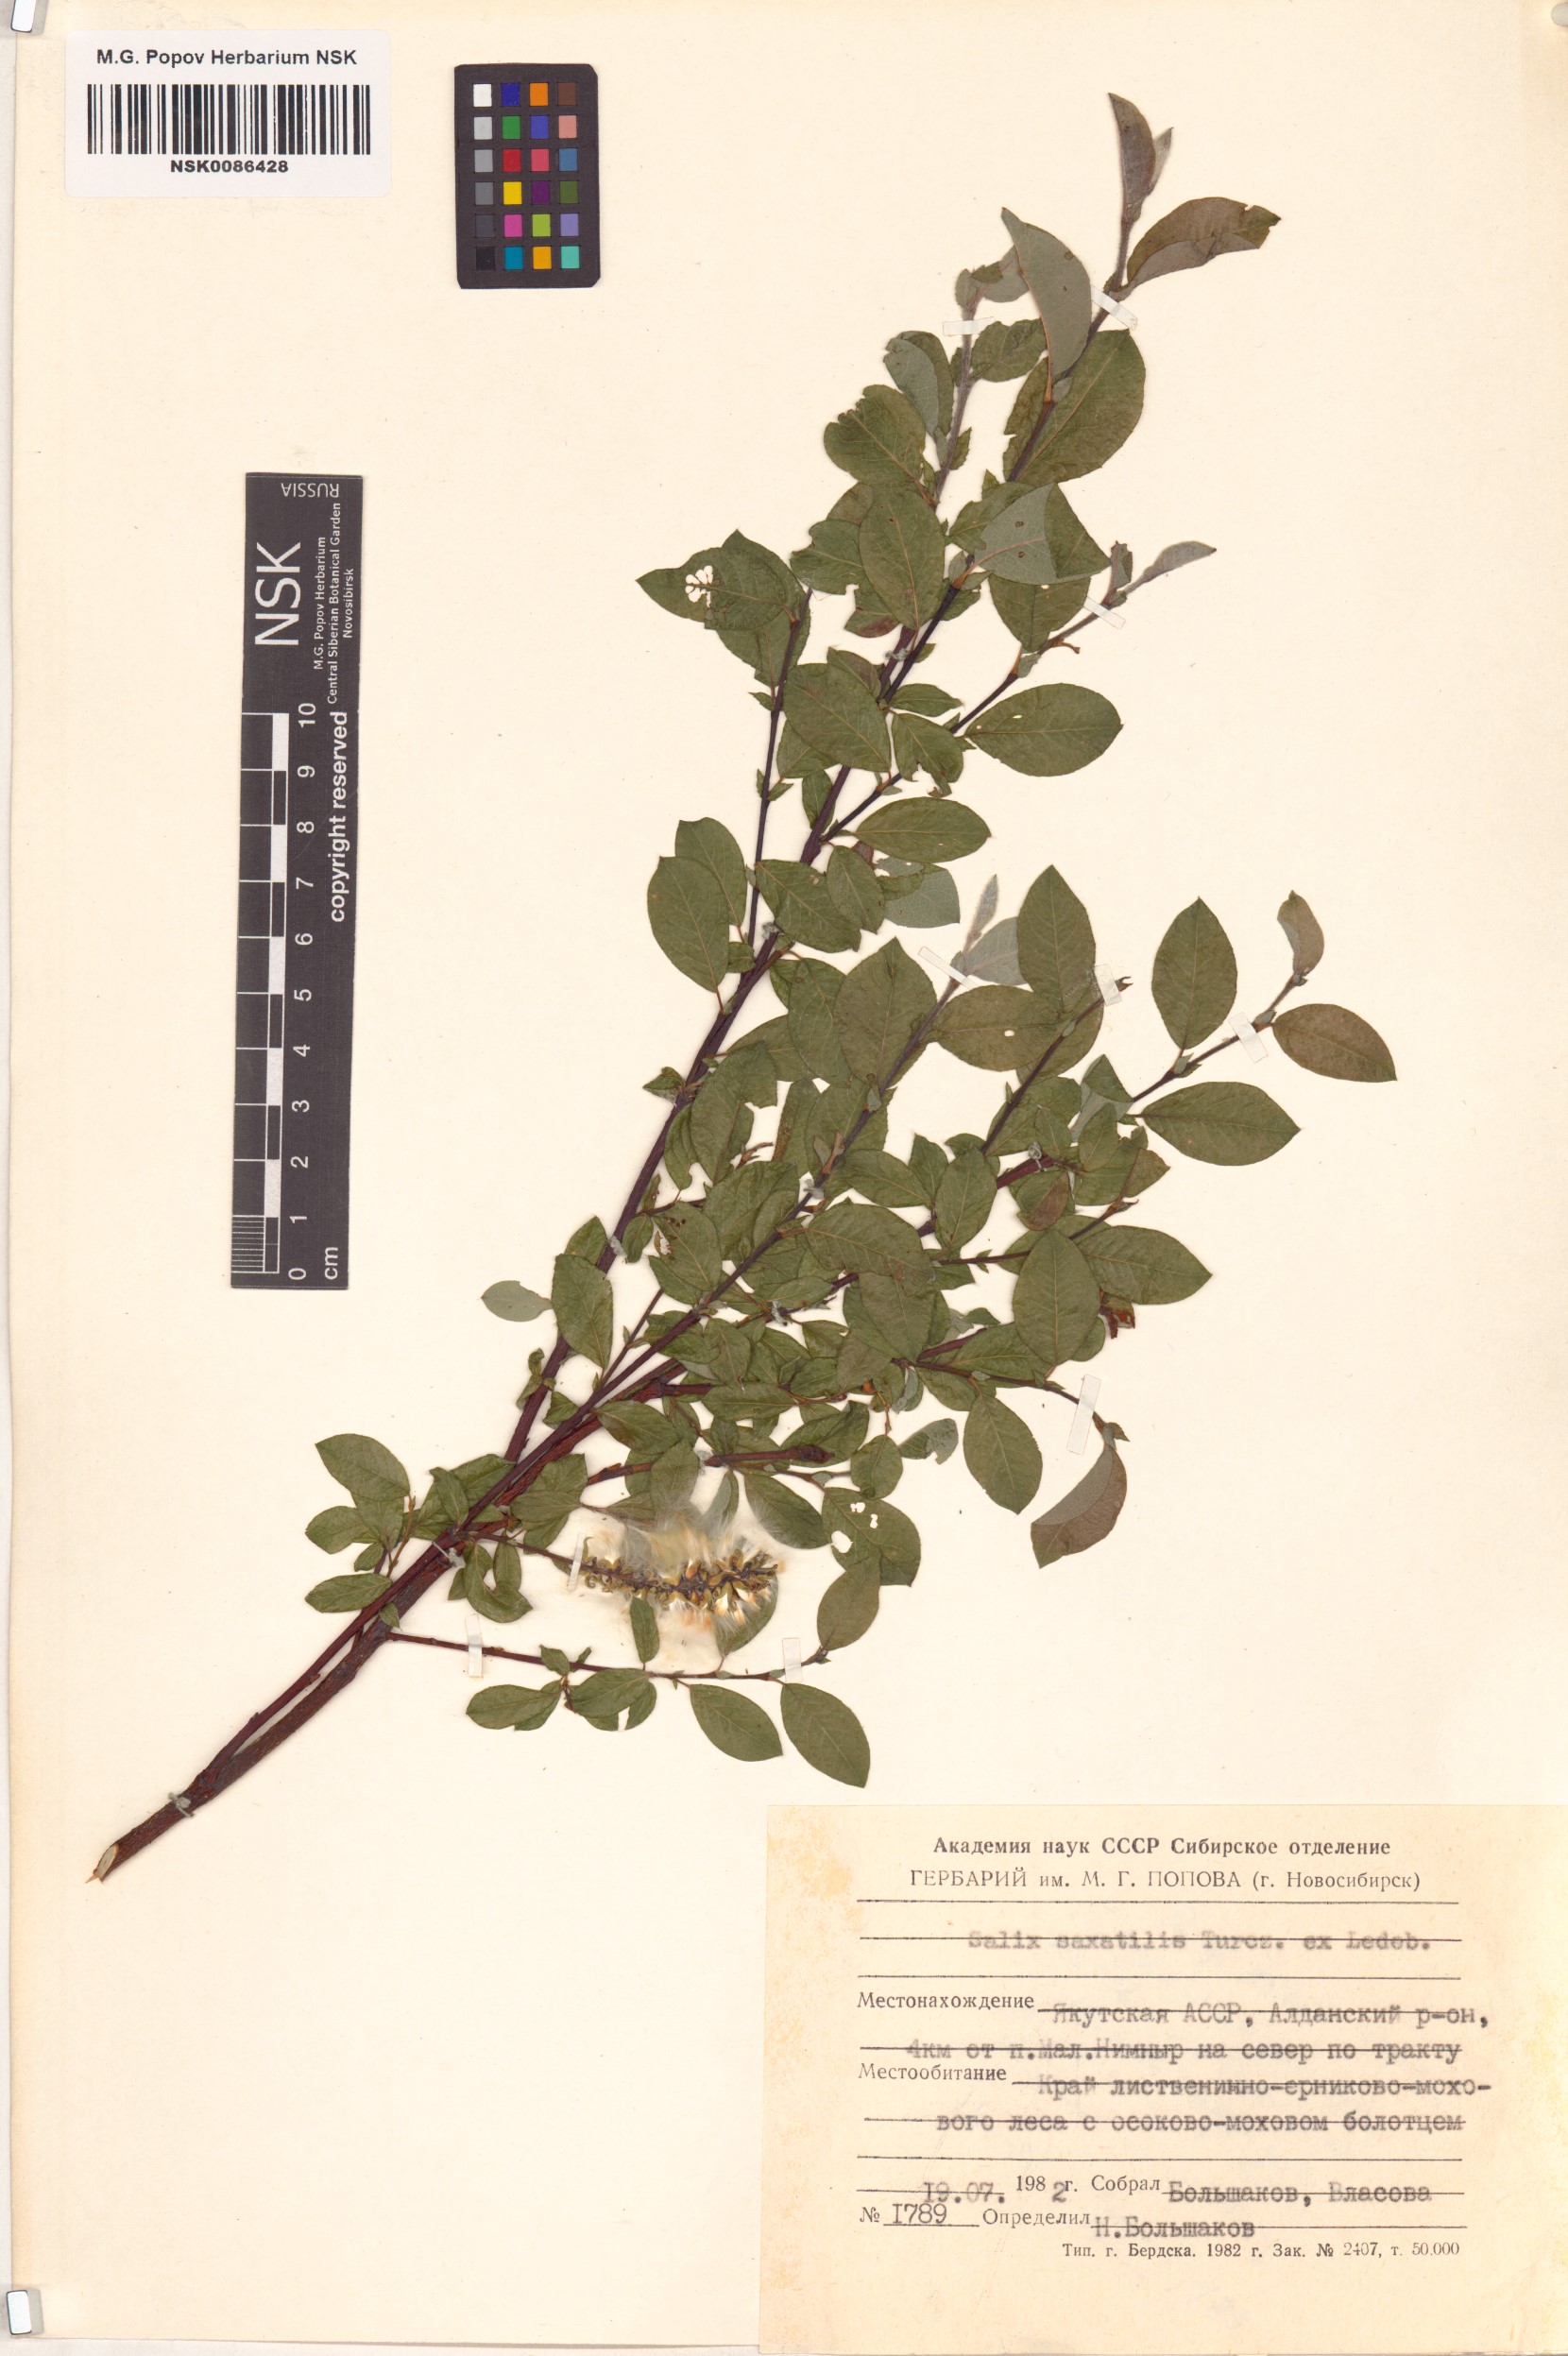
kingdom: Plantae
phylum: Tracheophyta
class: Magnoliopsida
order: Malpighiales
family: Salicaceae
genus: Salix
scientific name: Salix saxatilis
